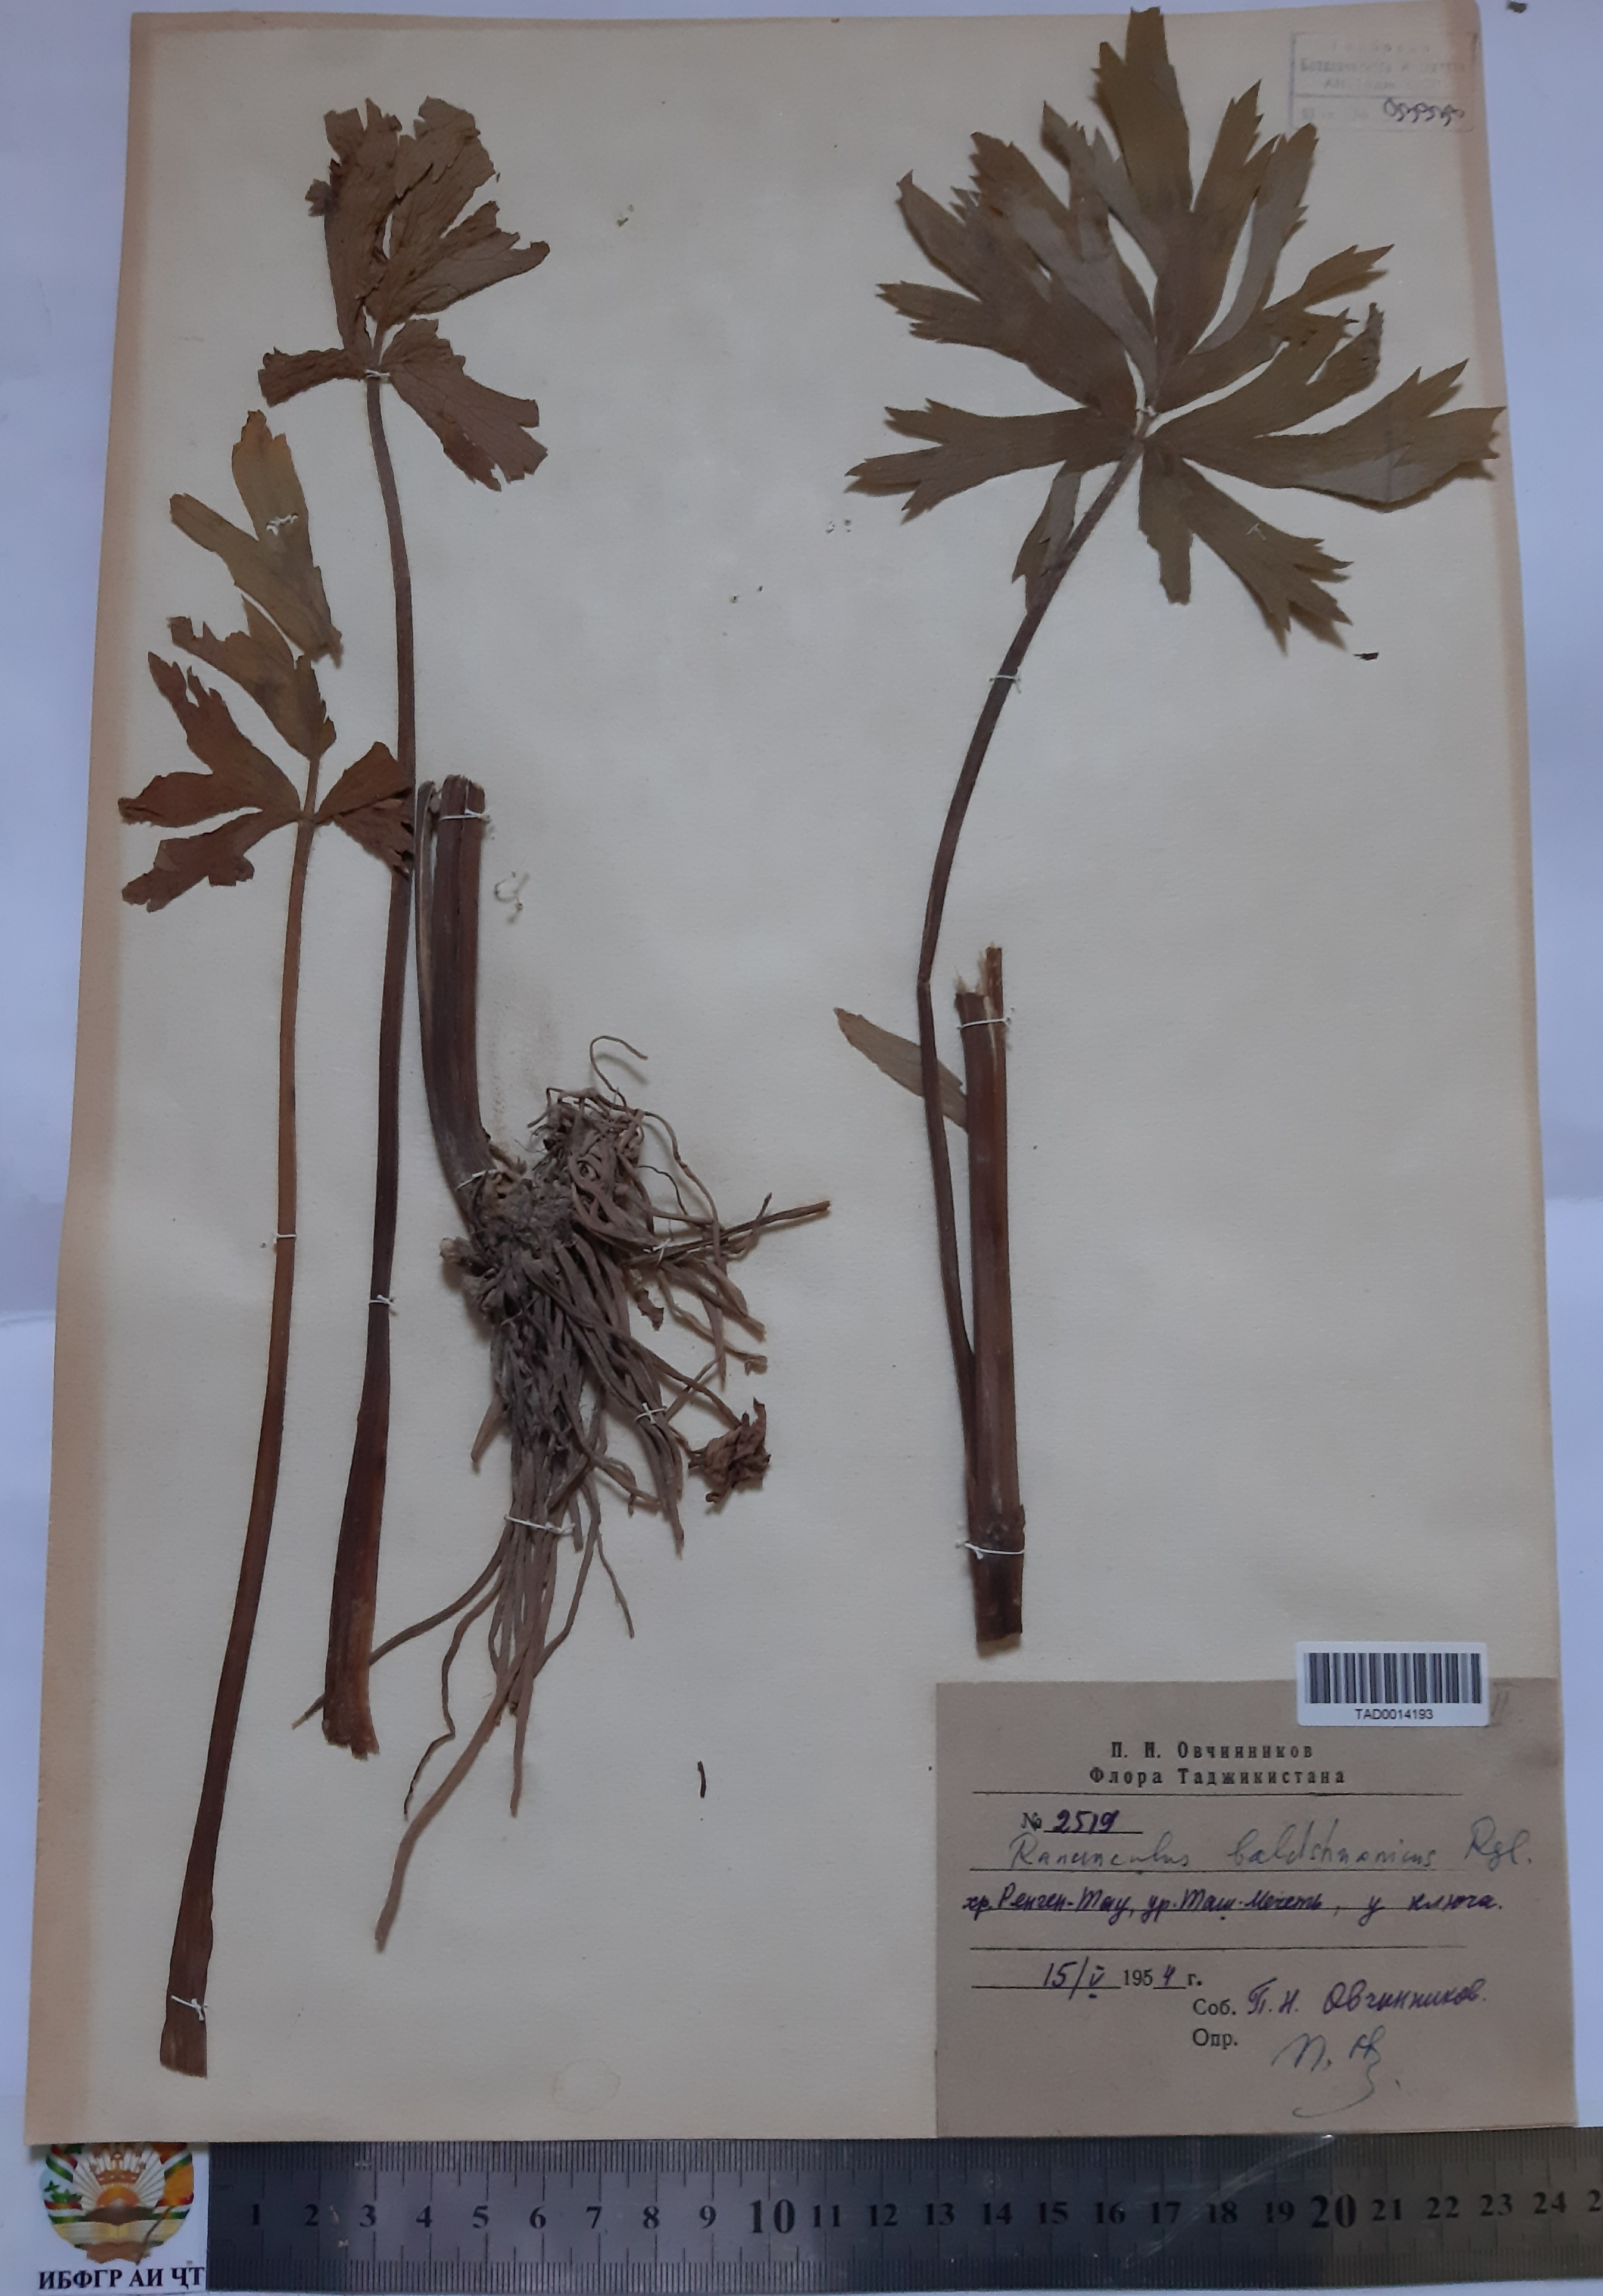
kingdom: Plantae
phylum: Tracheophyta
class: Magnoliopsida
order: Ranunculales
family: Ranunculaceae
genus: Ranunculus
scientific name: Ranunculus baldshuanicus
